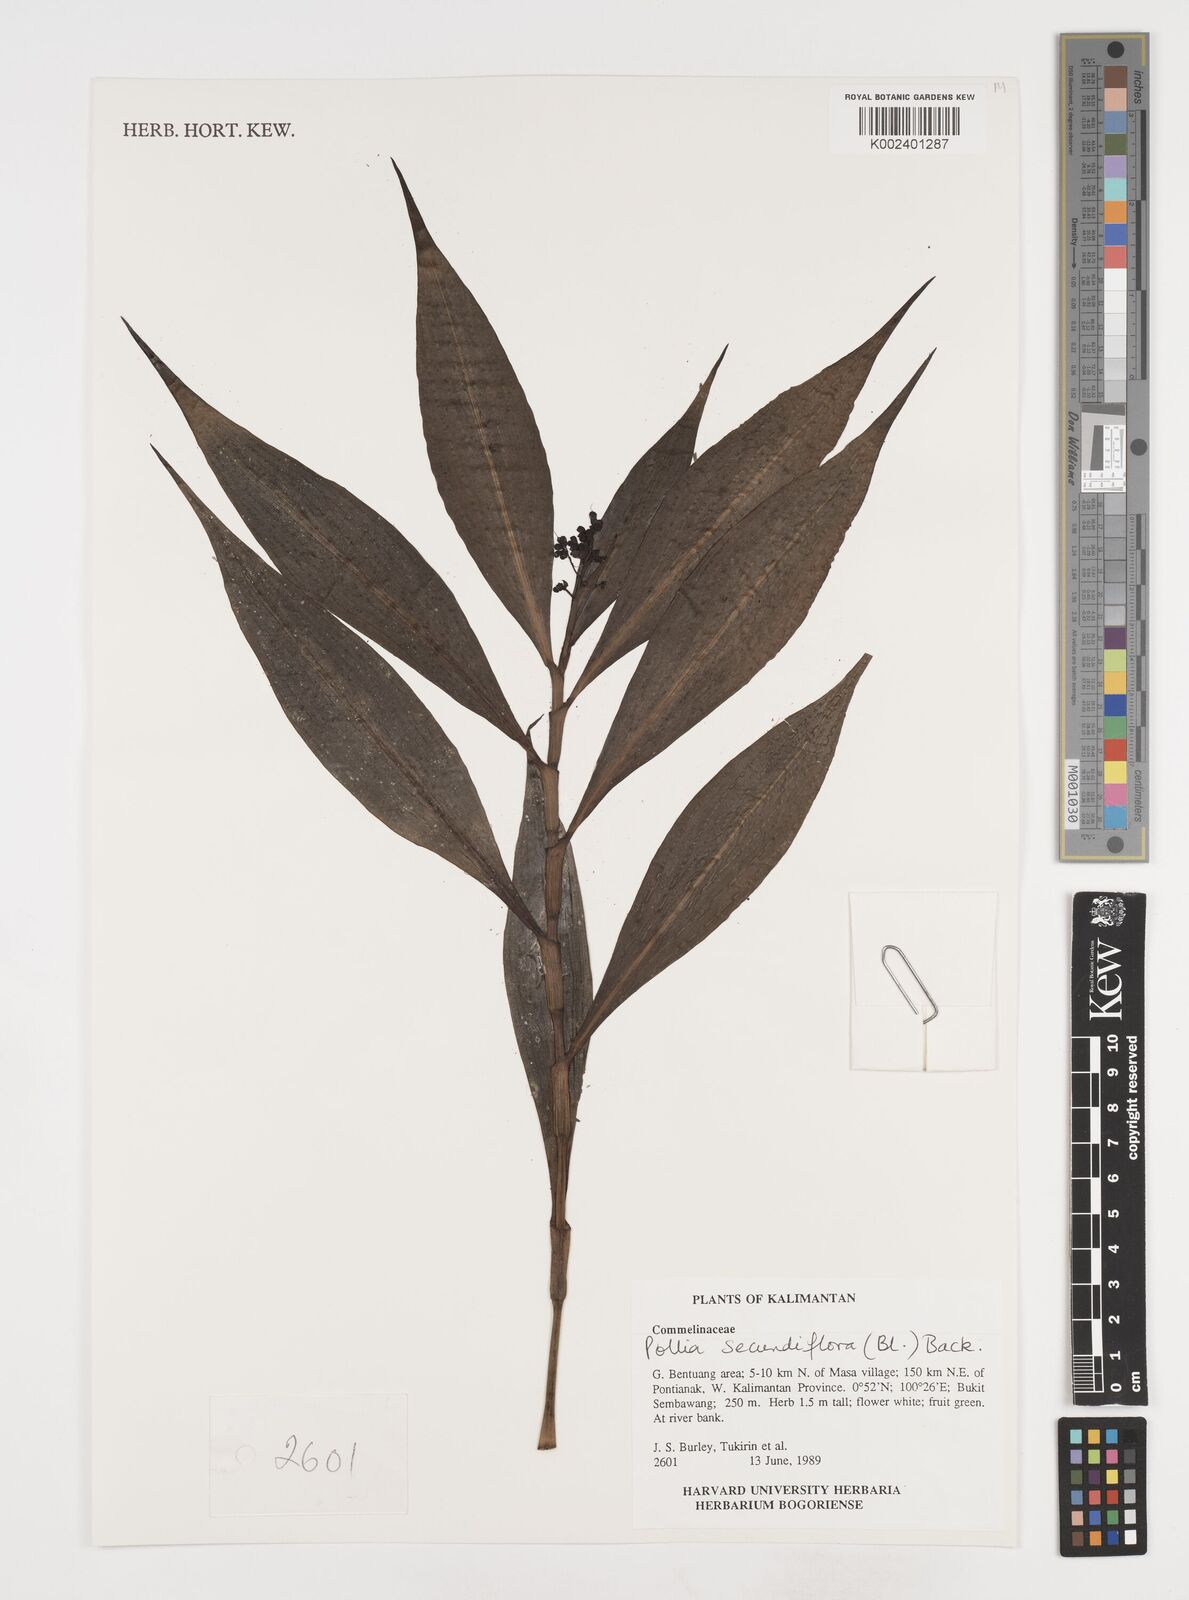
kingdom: Plantae
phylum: Tracheophyta
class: Liliopsida
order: Commelinales
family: Commelinaceae
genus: Pollia
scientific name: Pollia secundiflora
